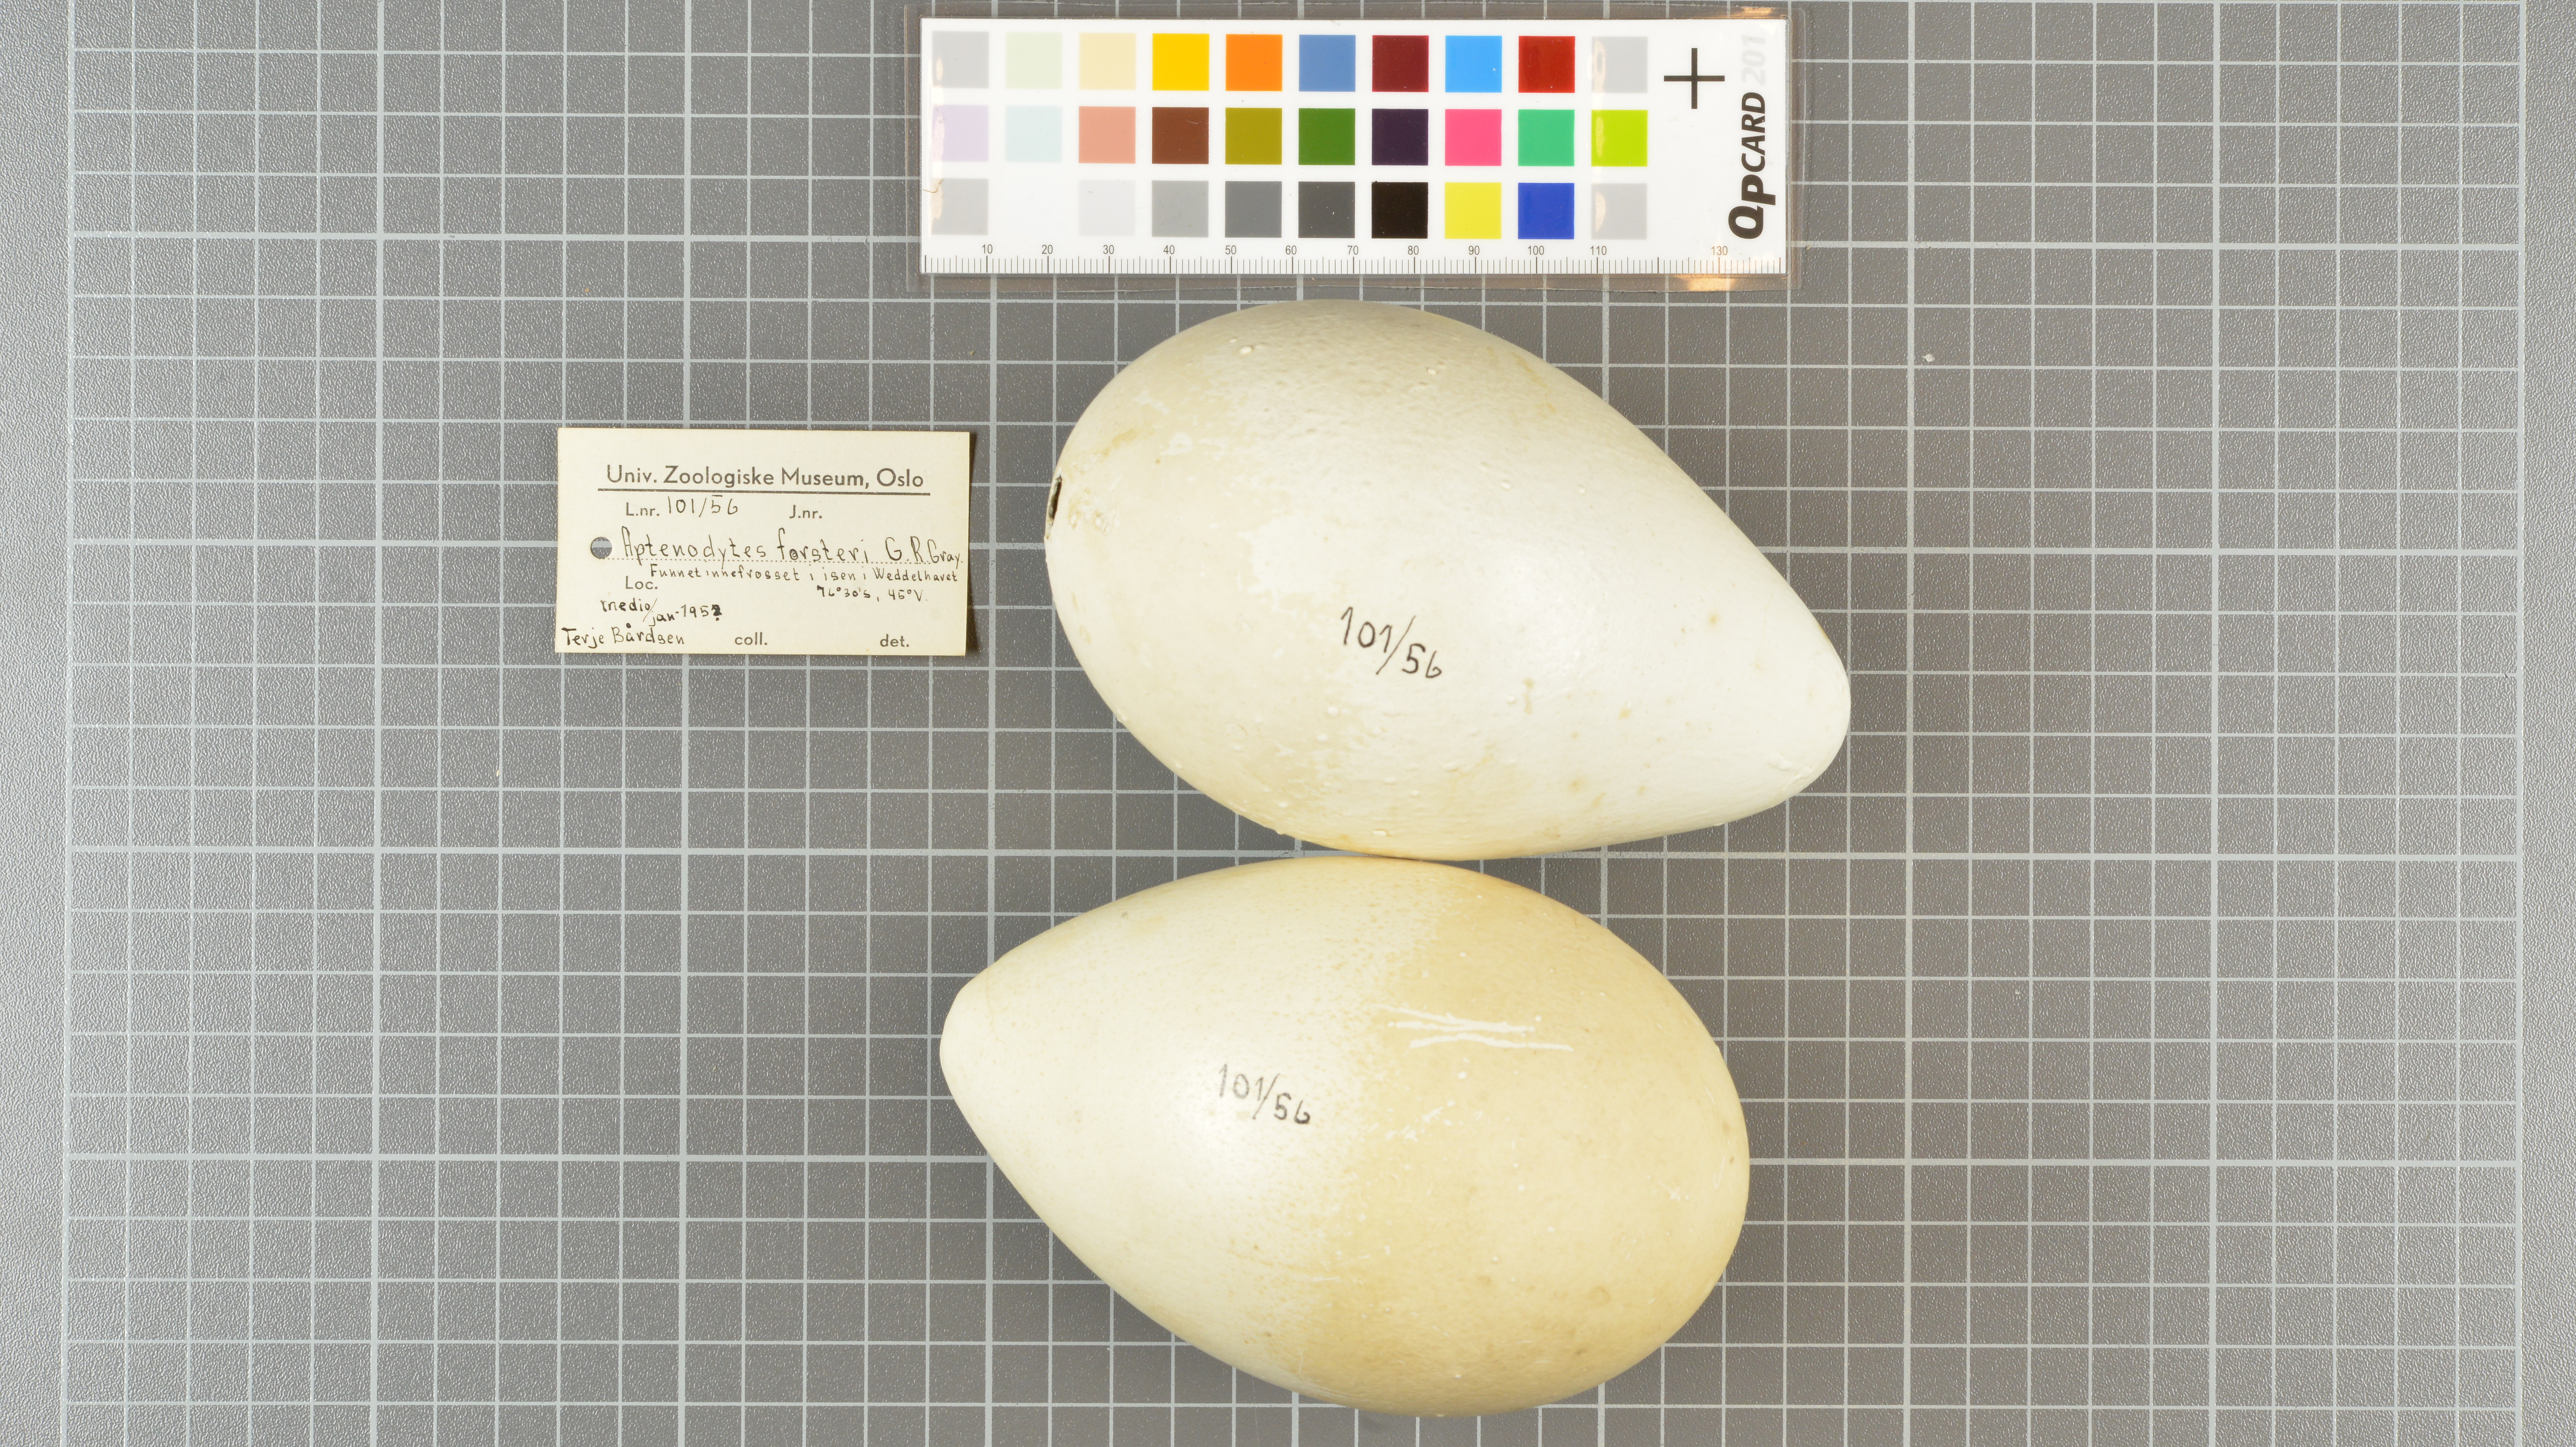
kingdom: Animalia
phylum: Chordata
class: Aves
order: Sphenisciformes
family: Spheniscidae
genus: Aptenodytes
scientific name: Aptenodytes forsteri
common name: Emperor penguin
